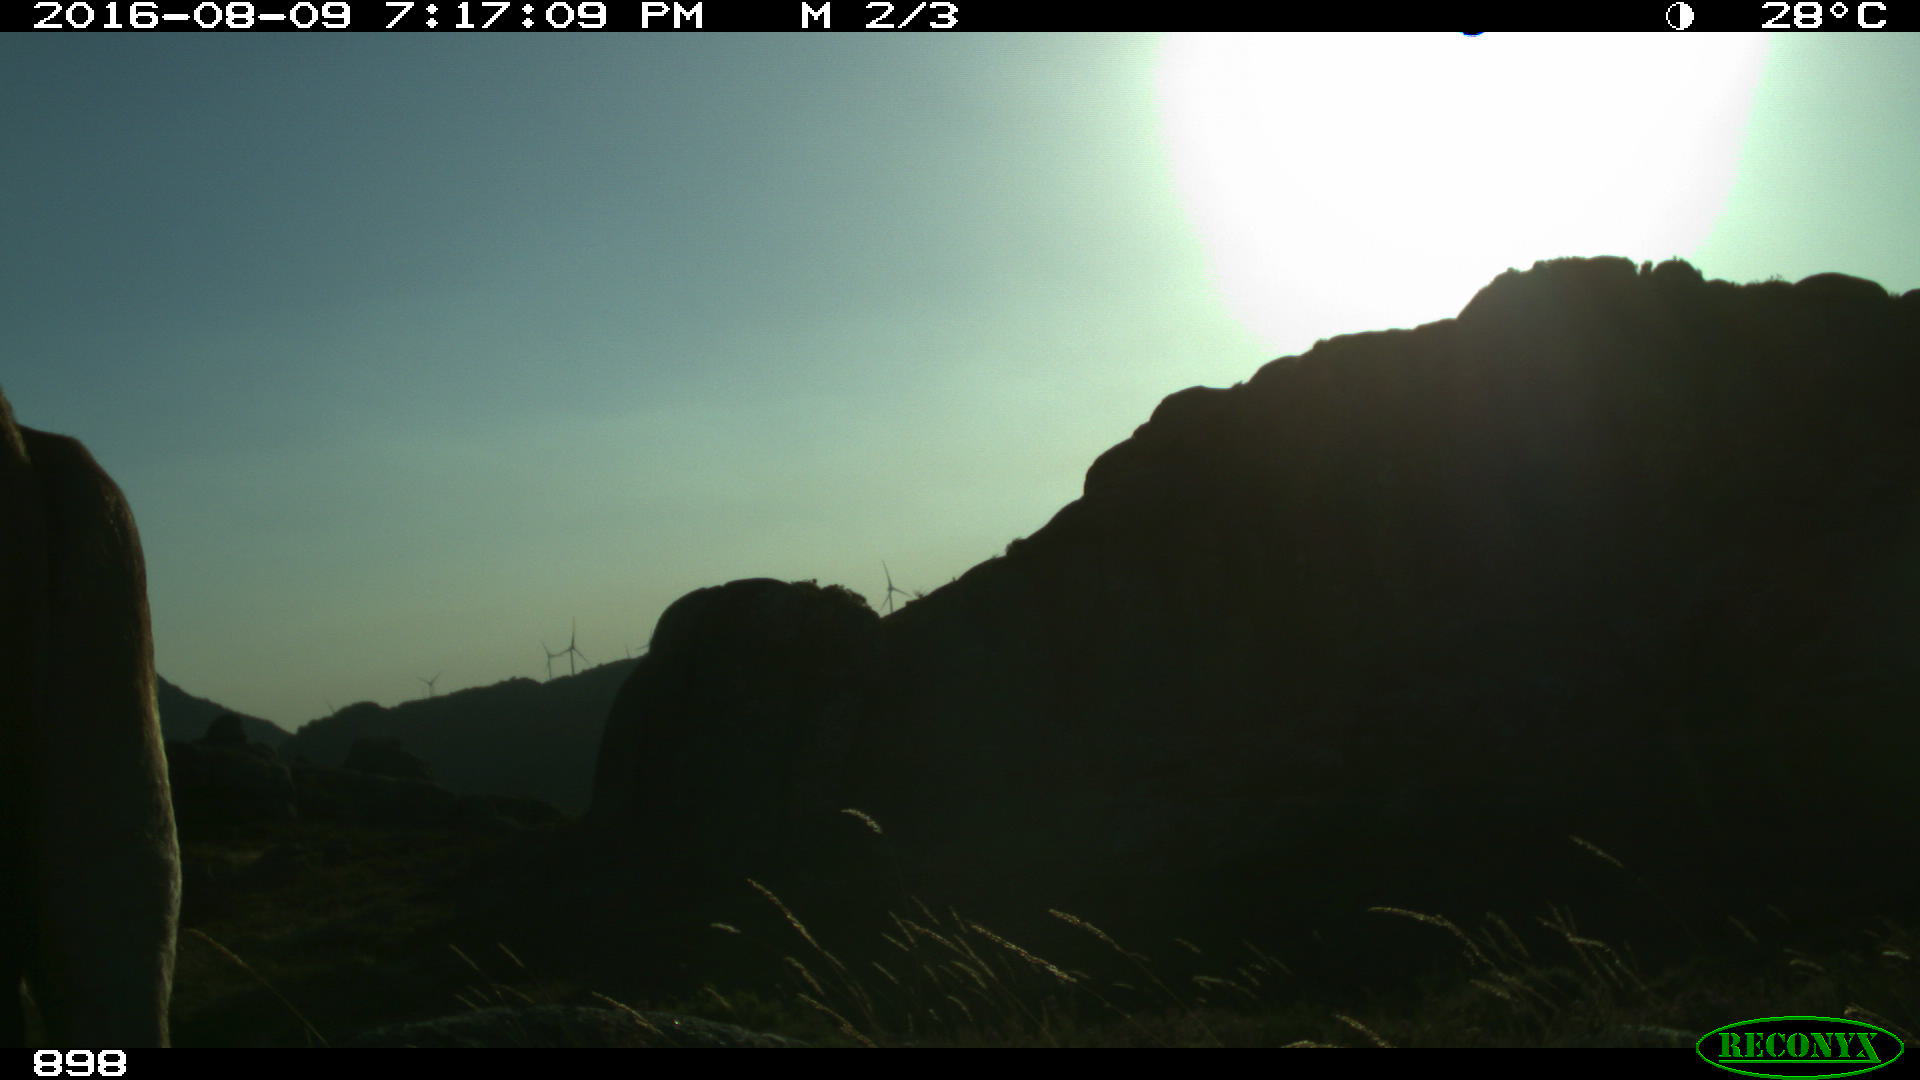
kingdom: Animalia
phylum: Chordata
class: Mammalia
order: Artiodactyla
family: Bovidae
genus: Bos
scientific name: Bos taurus
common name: Domesticated cattle
